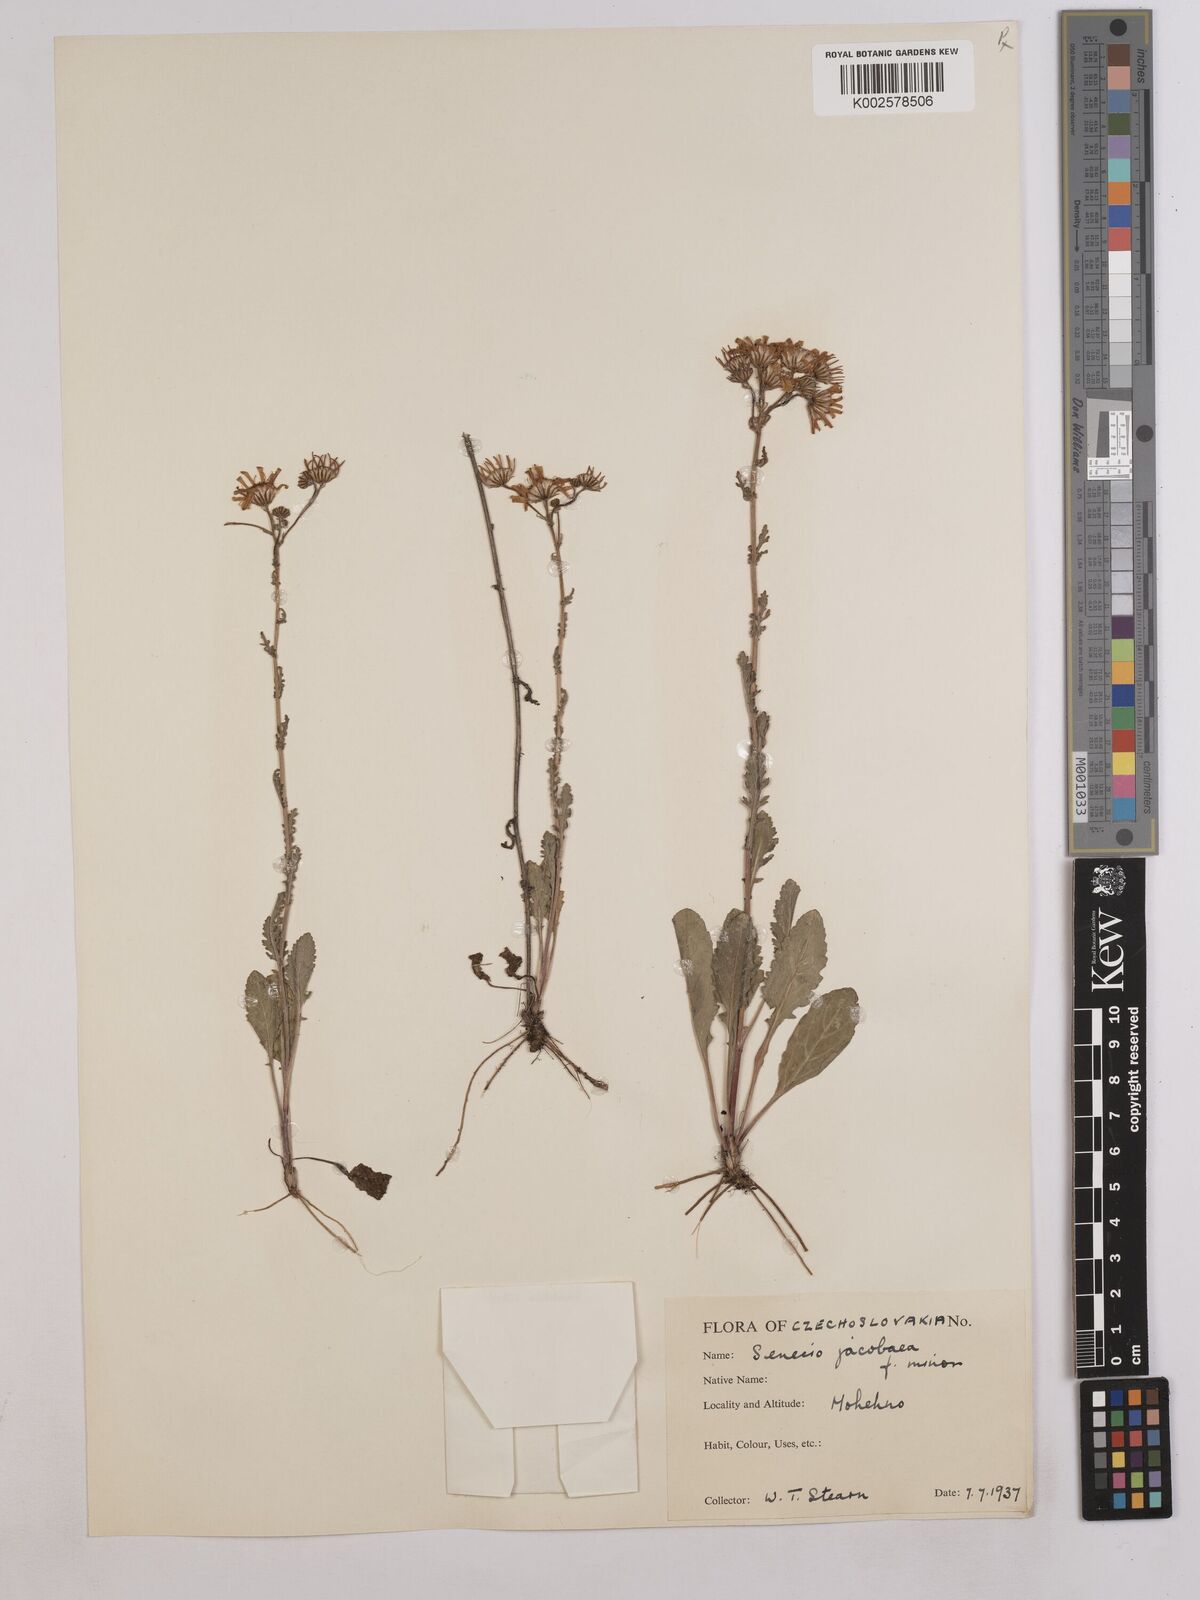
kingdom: Plantae
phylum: Tracheophyta
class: Magnoliopsida
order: Asterales
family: Asteraceae
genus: Jacobaea
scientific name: Jacobaea vulgaris
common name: Stinking willie
